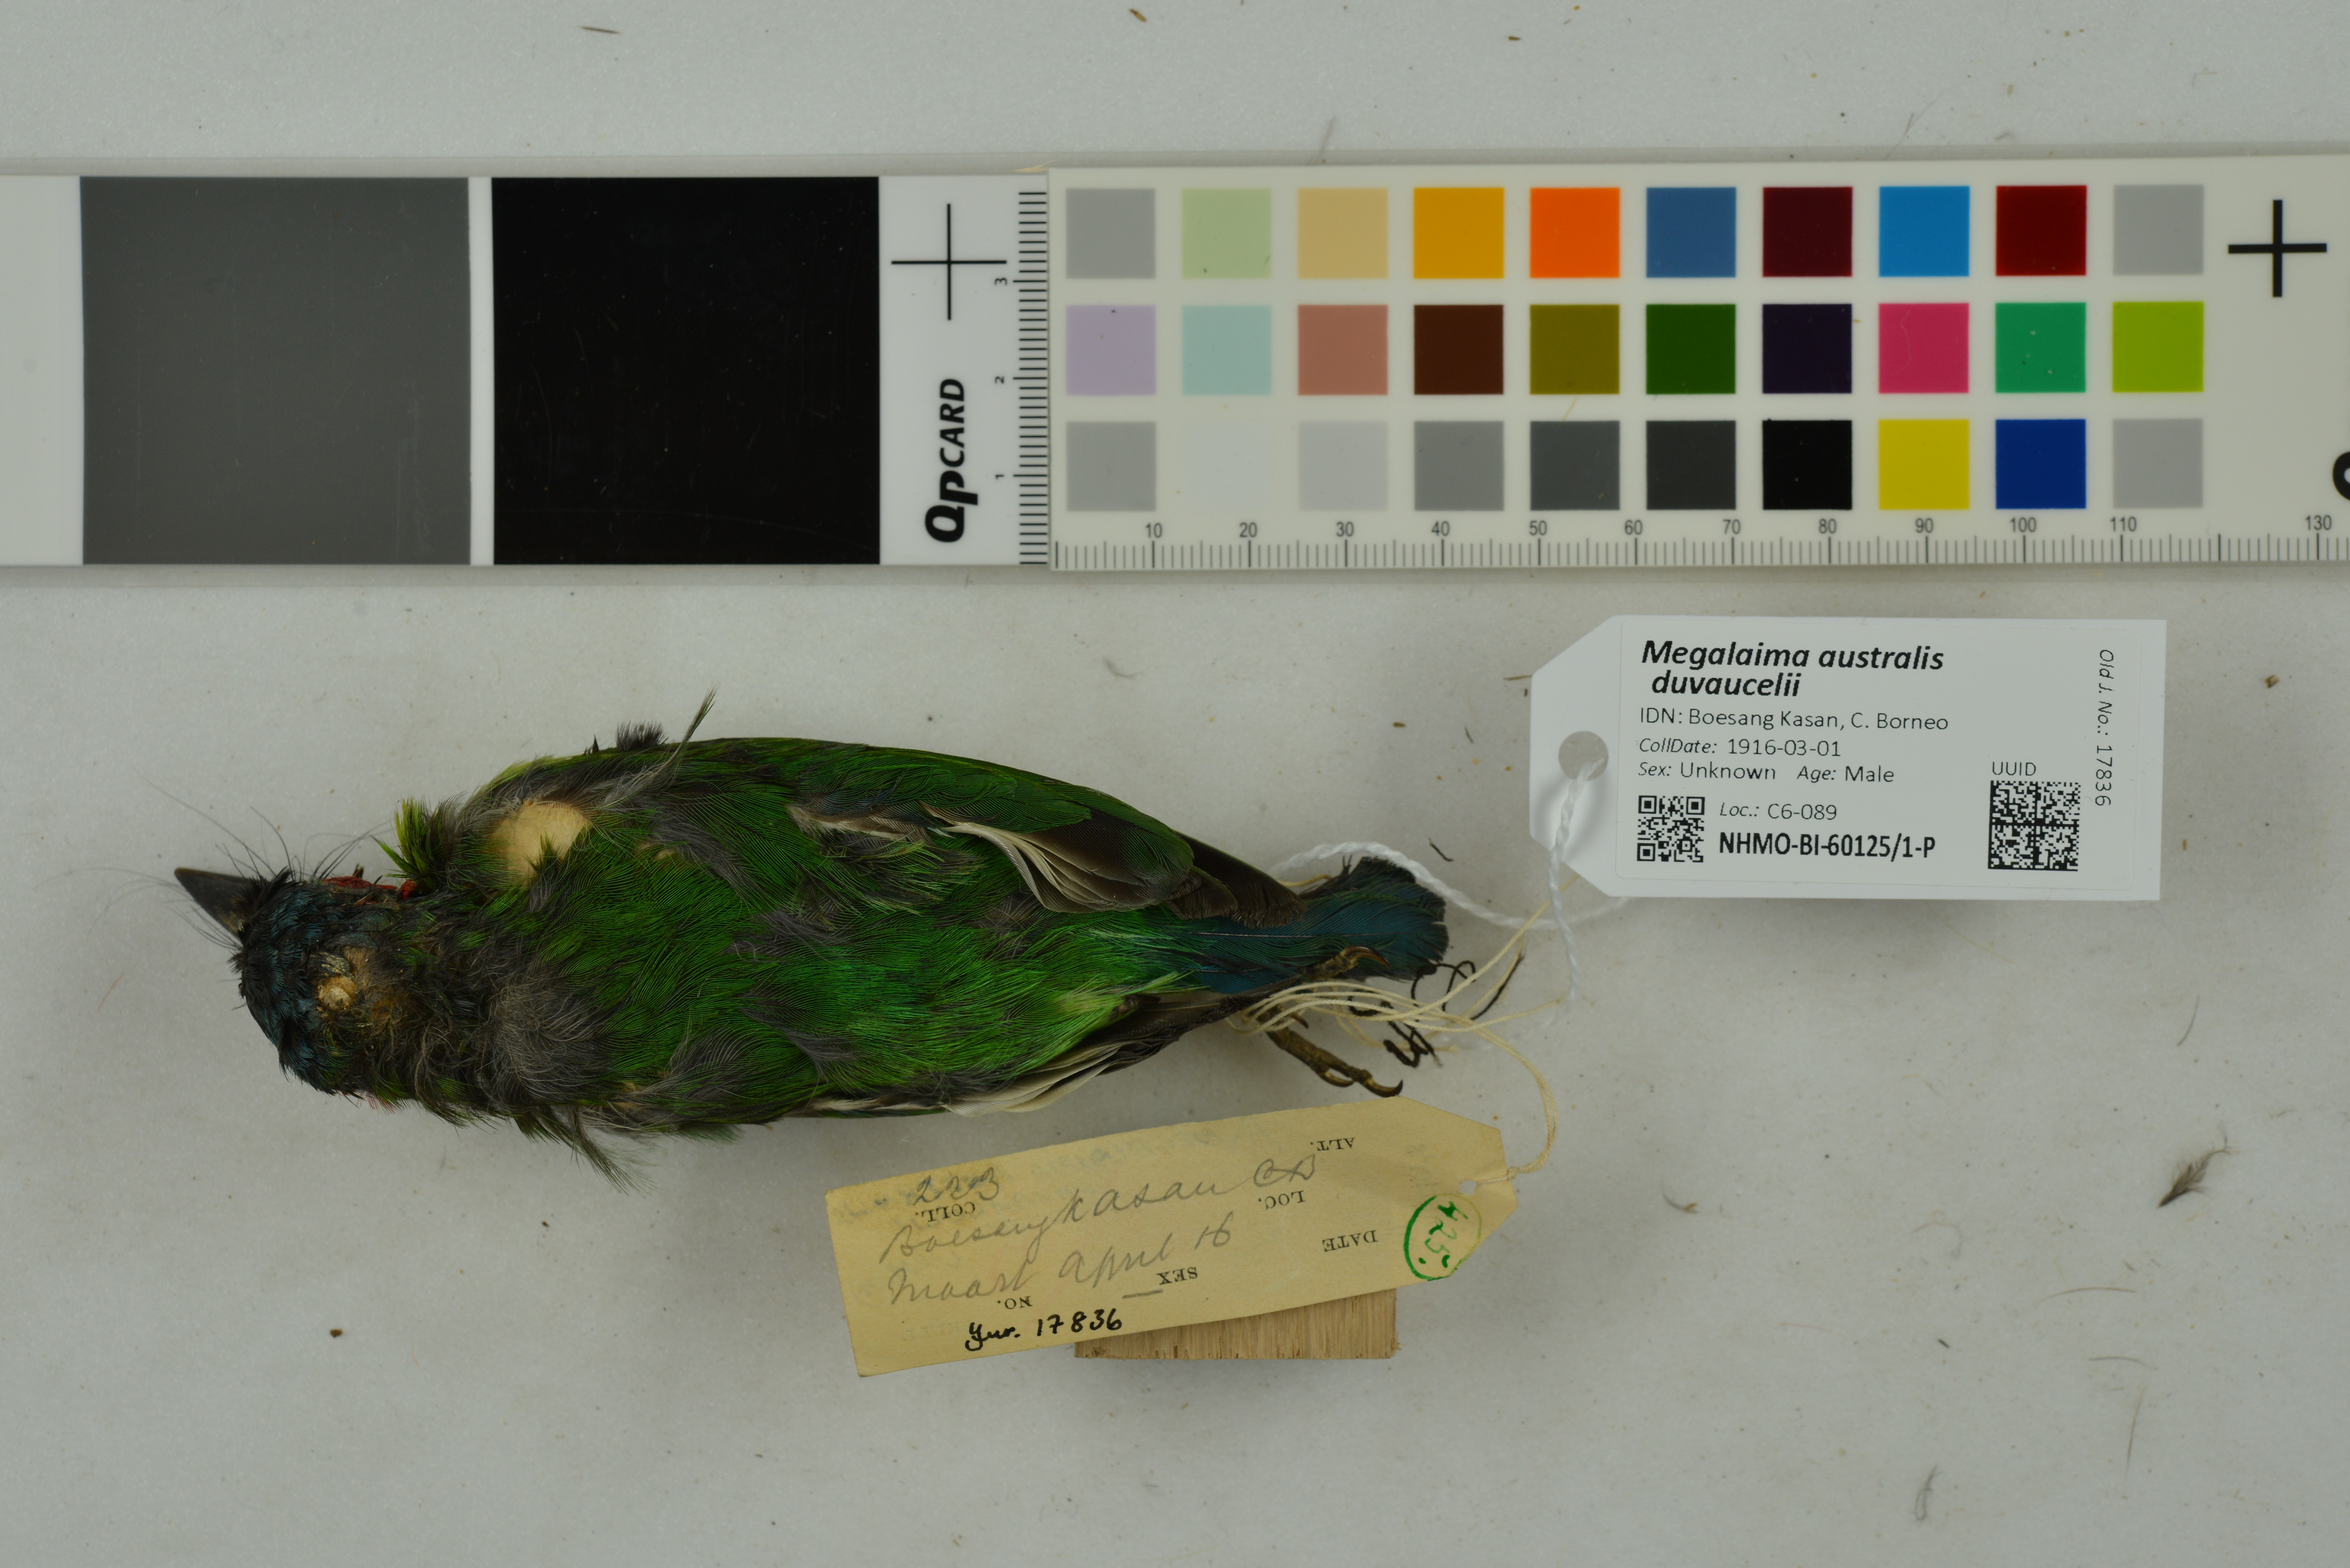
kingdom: Animalia
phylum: Chordata
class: Aves
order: Piciformes
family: Megalaimidae
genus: Psilopogon
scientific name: Psilopogon duvaucelii
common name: Blue-eared barbet
